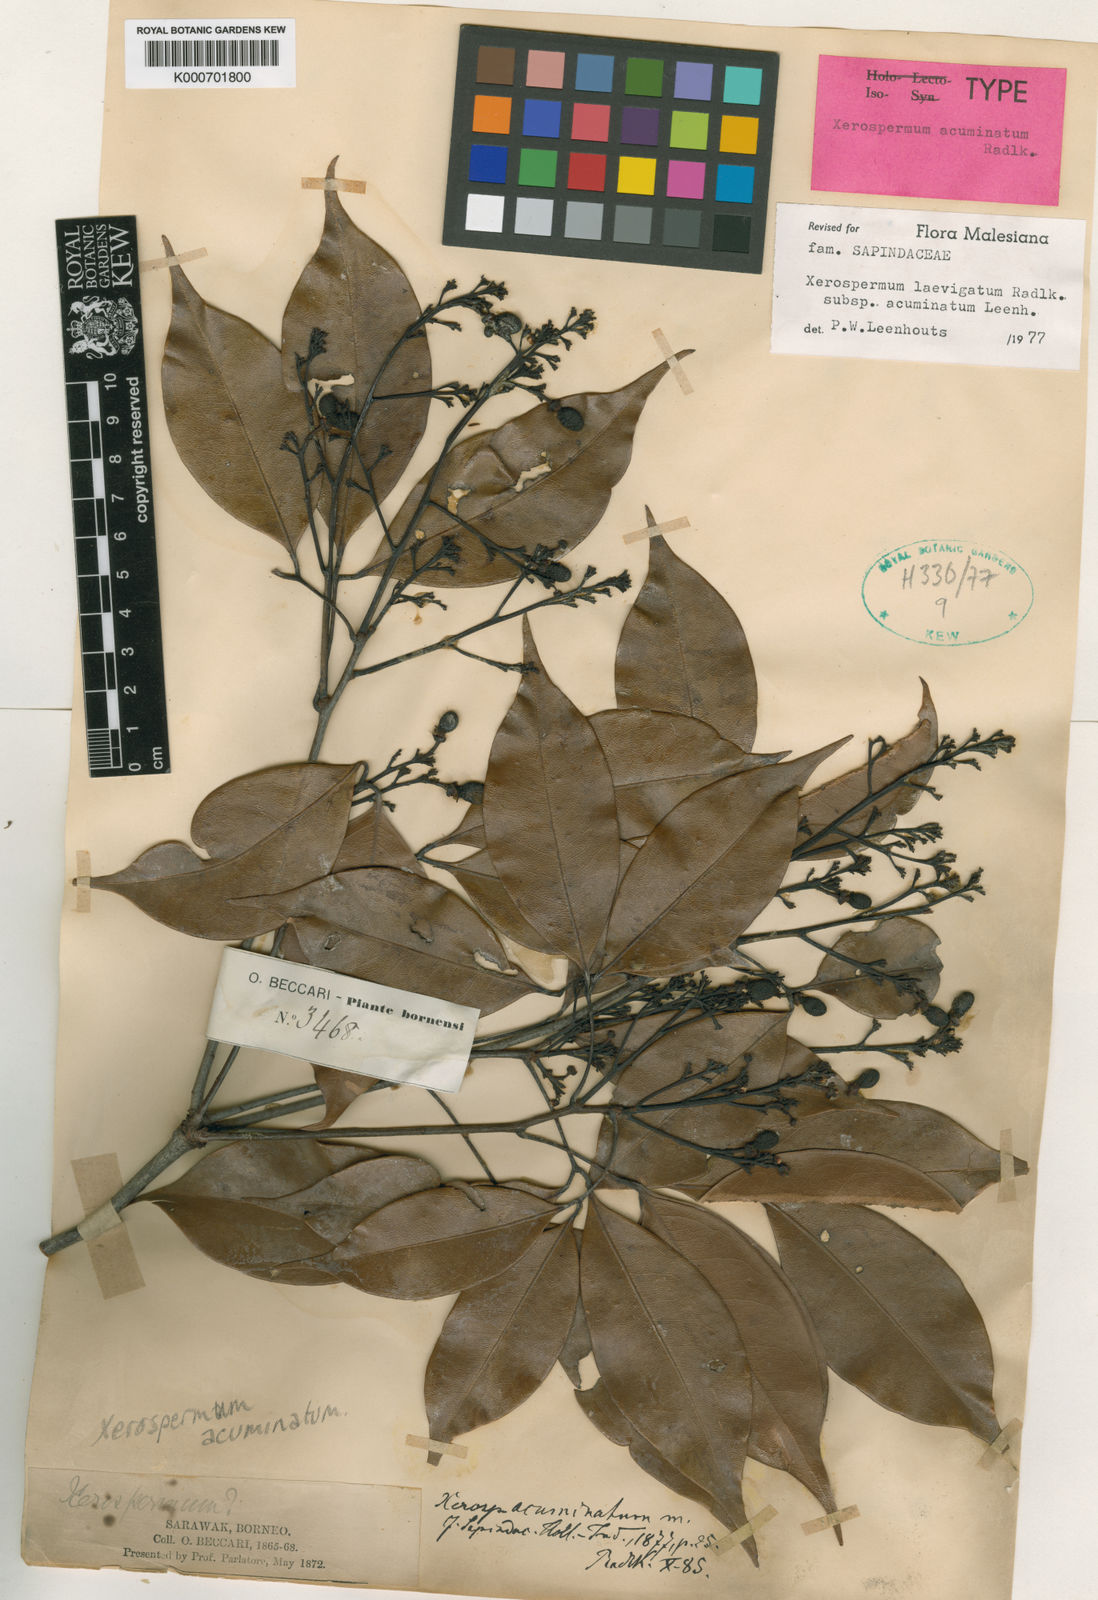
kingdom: Plantae
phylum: Tracheophyta
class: Magnoliopsida
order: Sapindales
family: Sapindaceae
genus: Xerospermum
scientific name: Xerospermum laevigatum
